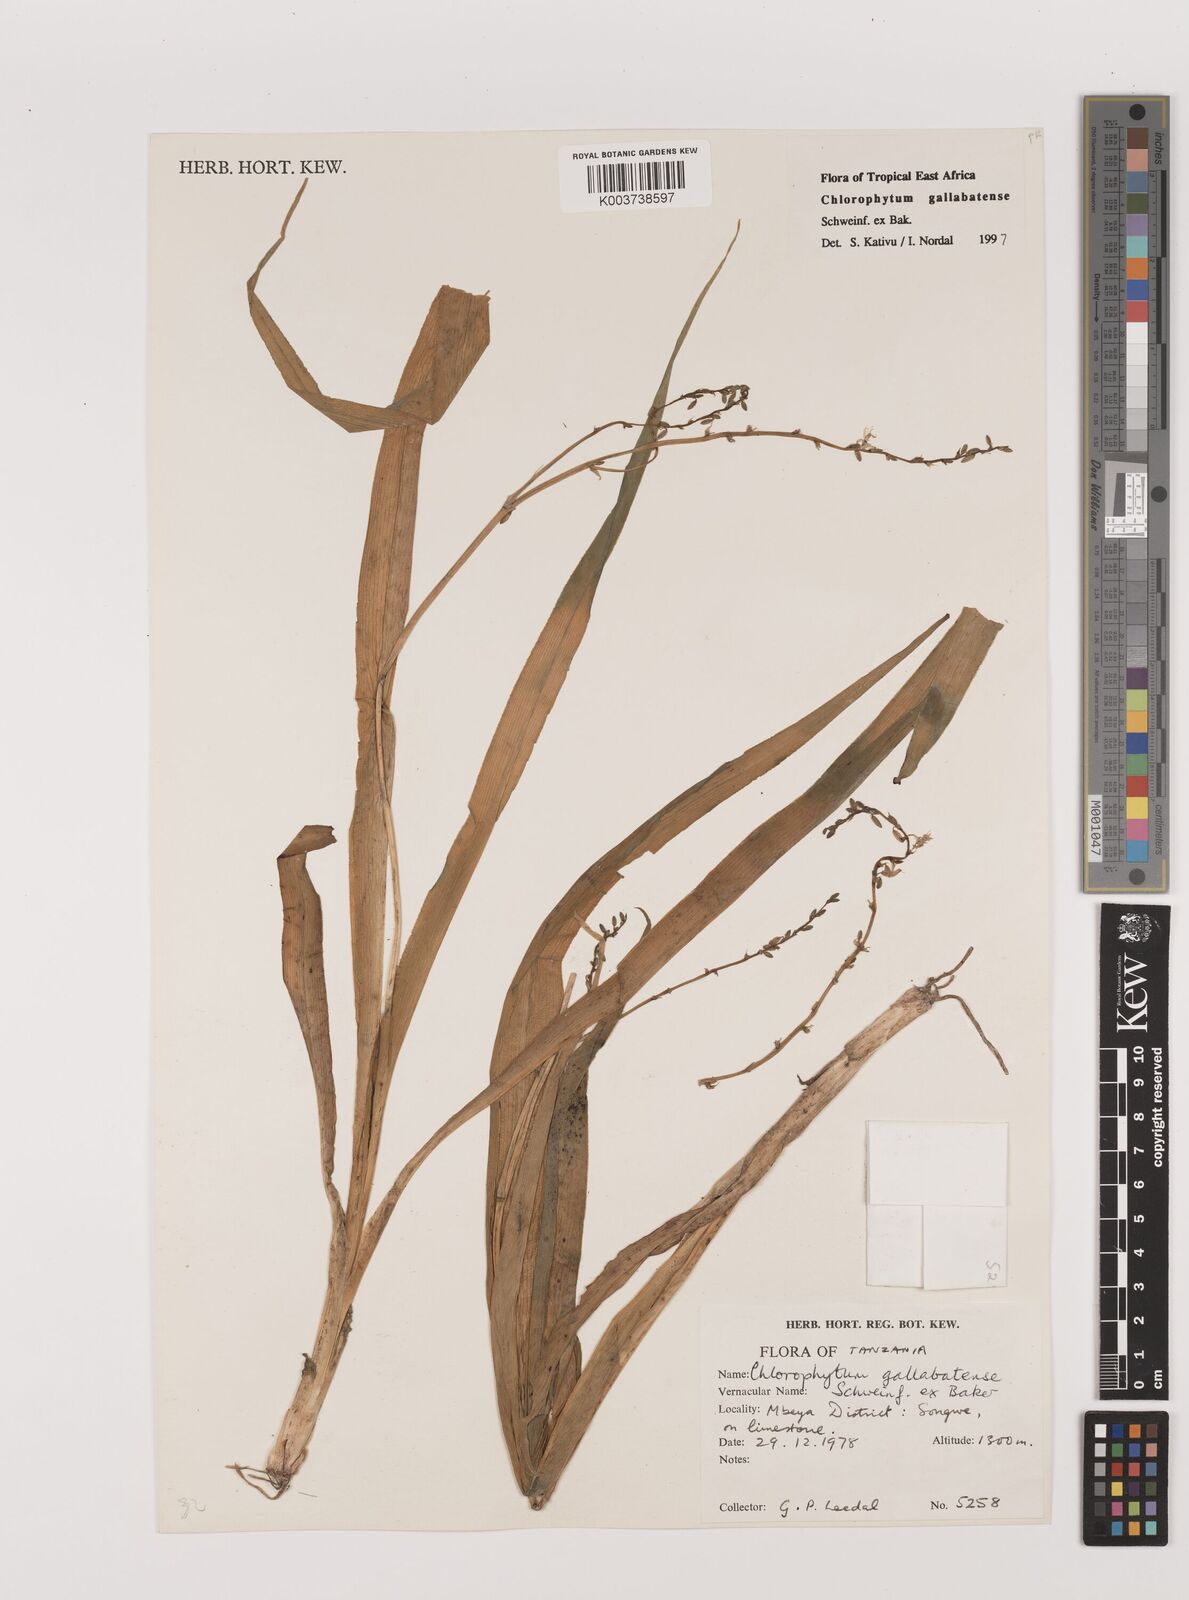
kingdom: Plantae
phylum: Tracheophyta
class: Liliopsida
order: Asparagales
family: Asparagaceae
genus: Chlorophytum
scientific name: Chlorophytum gallabatense
